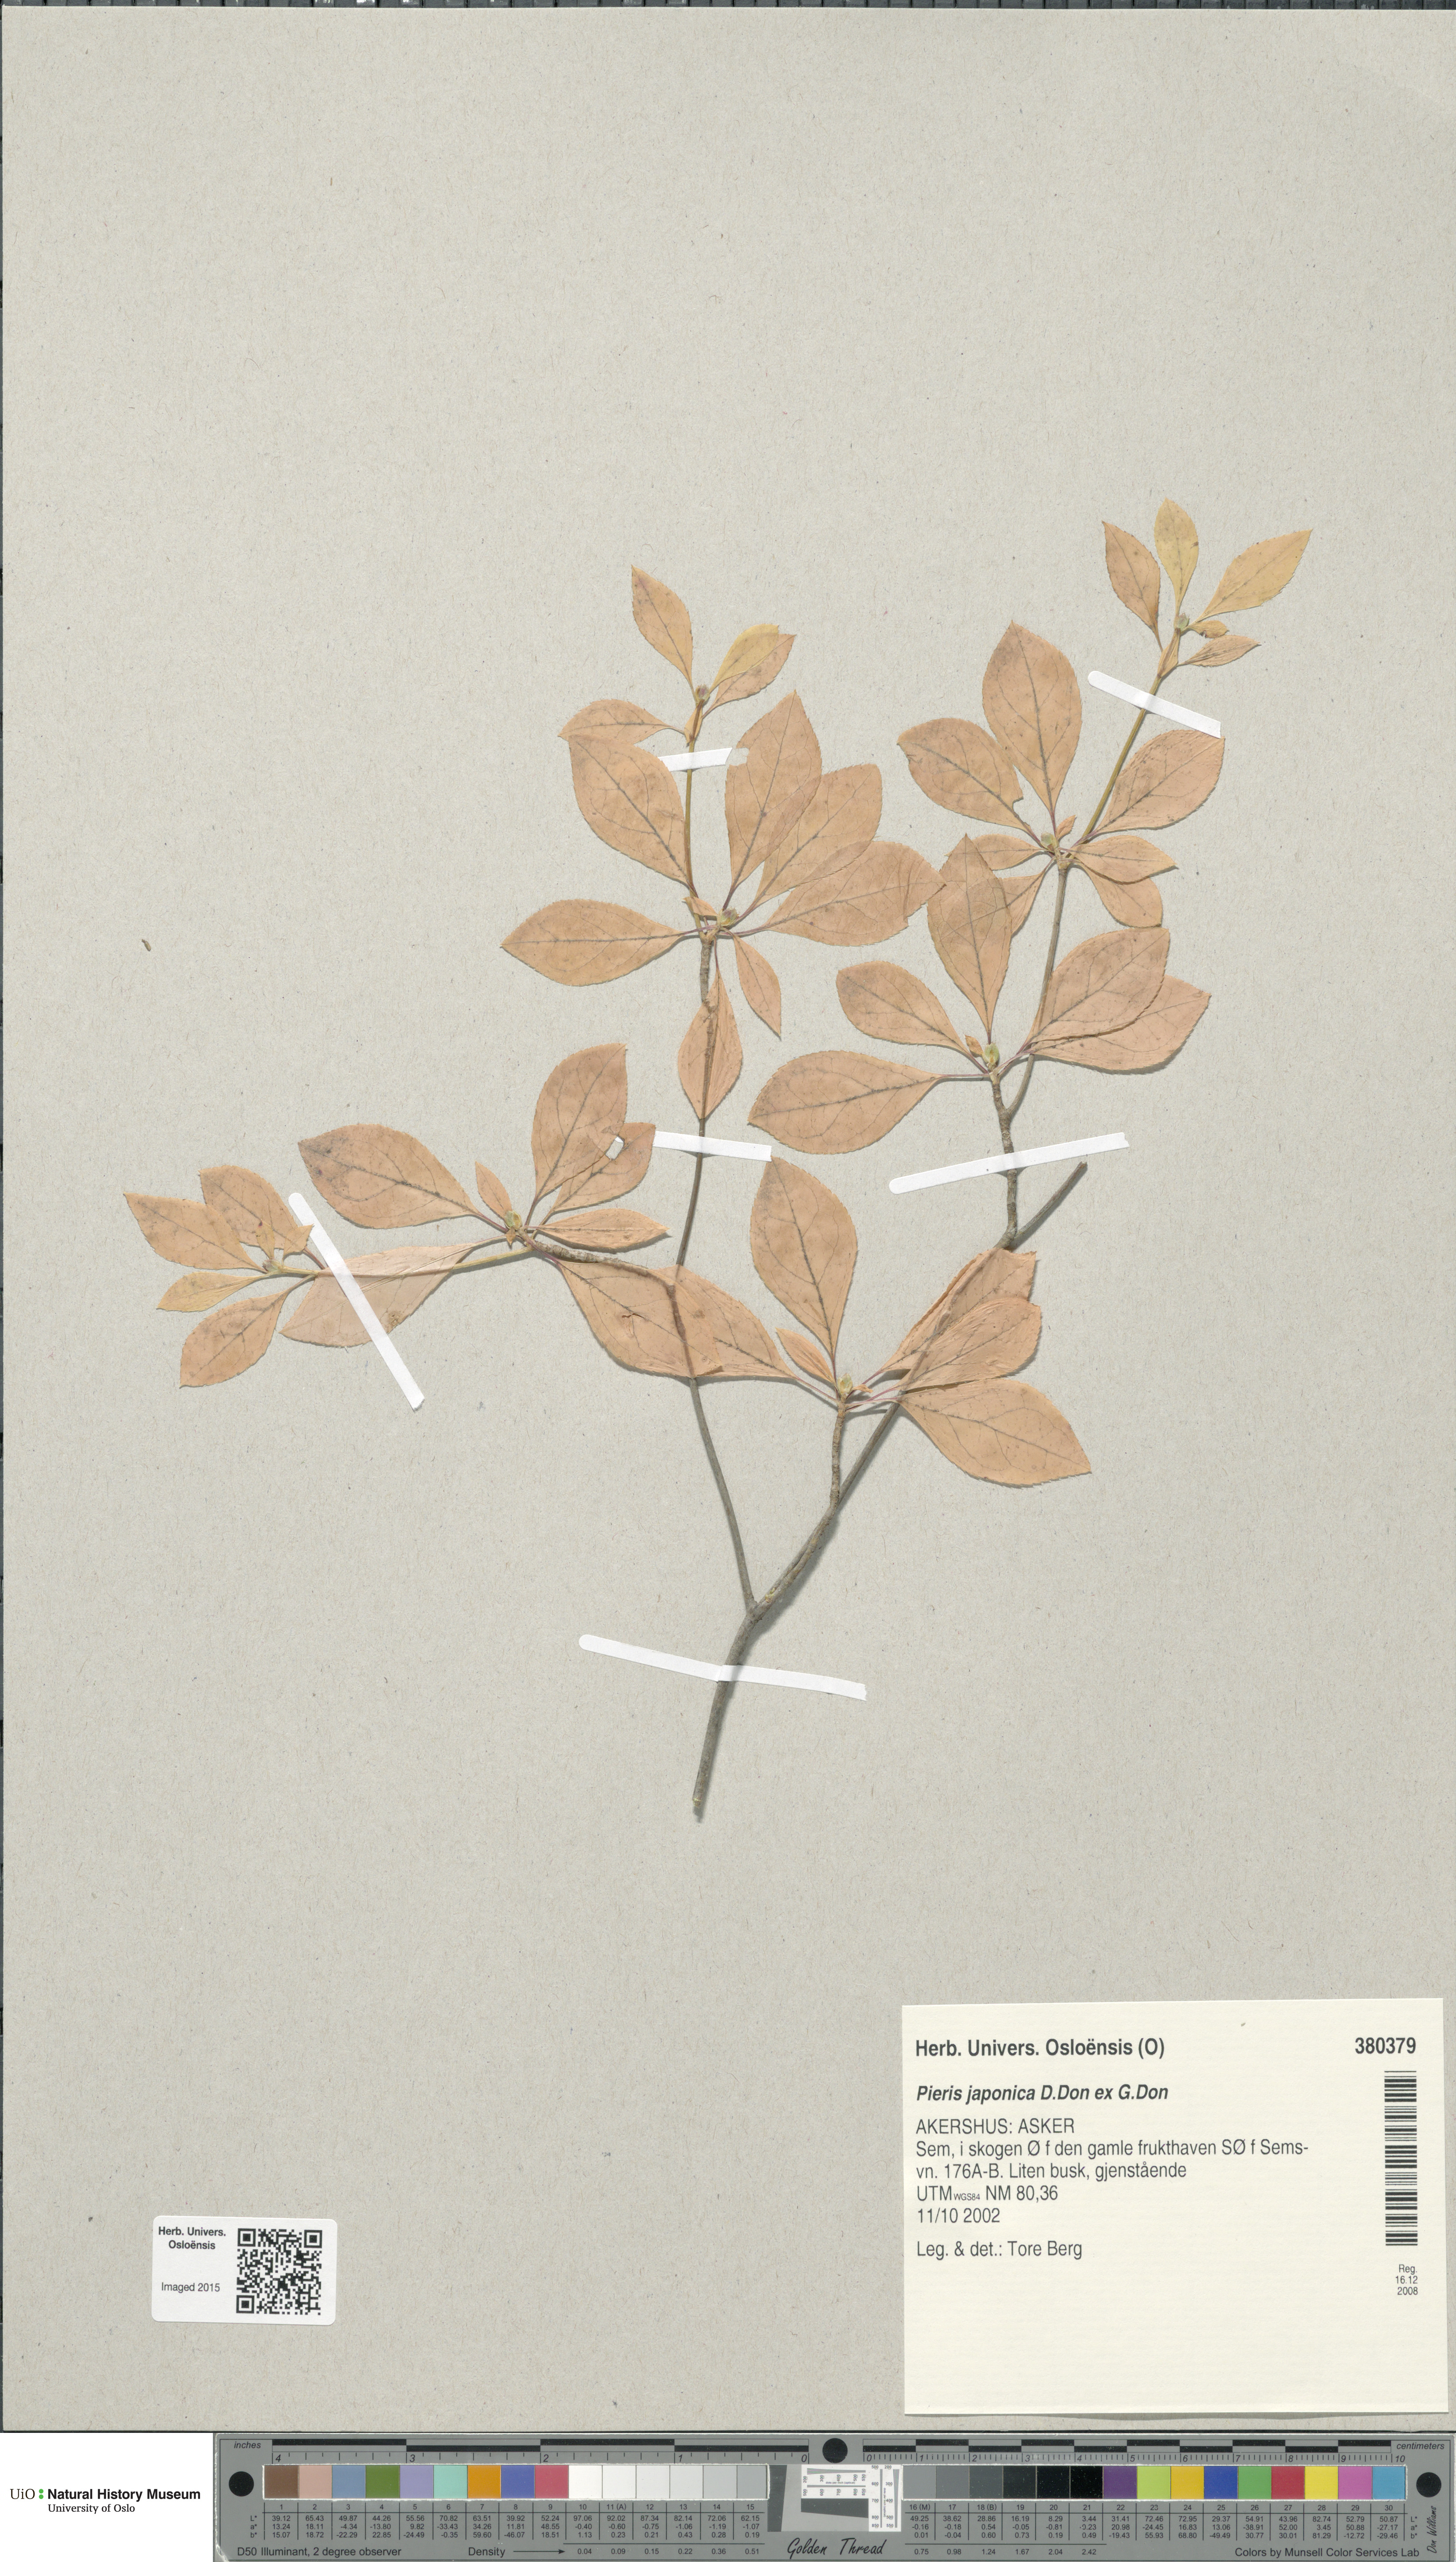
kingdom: Plantae
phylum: Tracheophyta
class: Magnoliopsida
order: Ericales
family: Ericaceae
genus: Pieris
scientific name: Pieris japonica
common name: Japanese pieris
